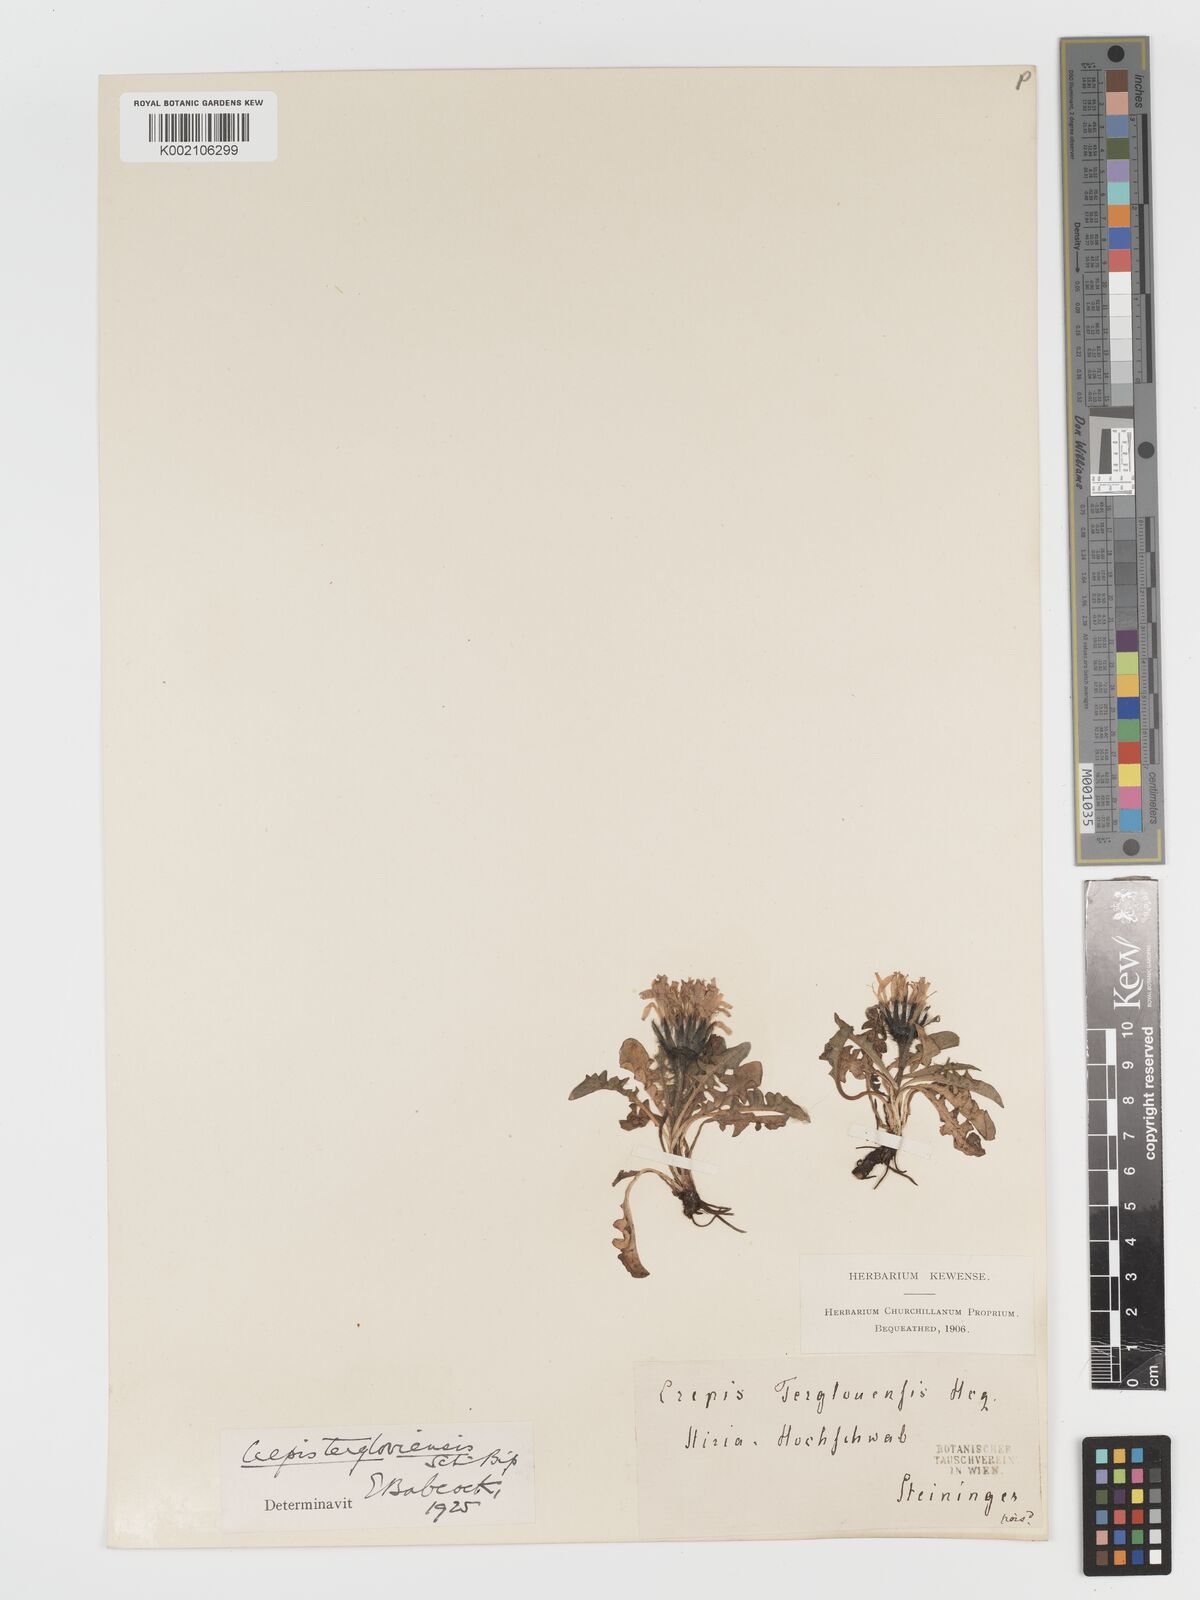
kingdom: Plantae
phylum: Tracheophyta
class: Magnoliopsida
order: Asterales
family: Asteraceae
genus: Crepis
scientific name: Crepis terglouensis
